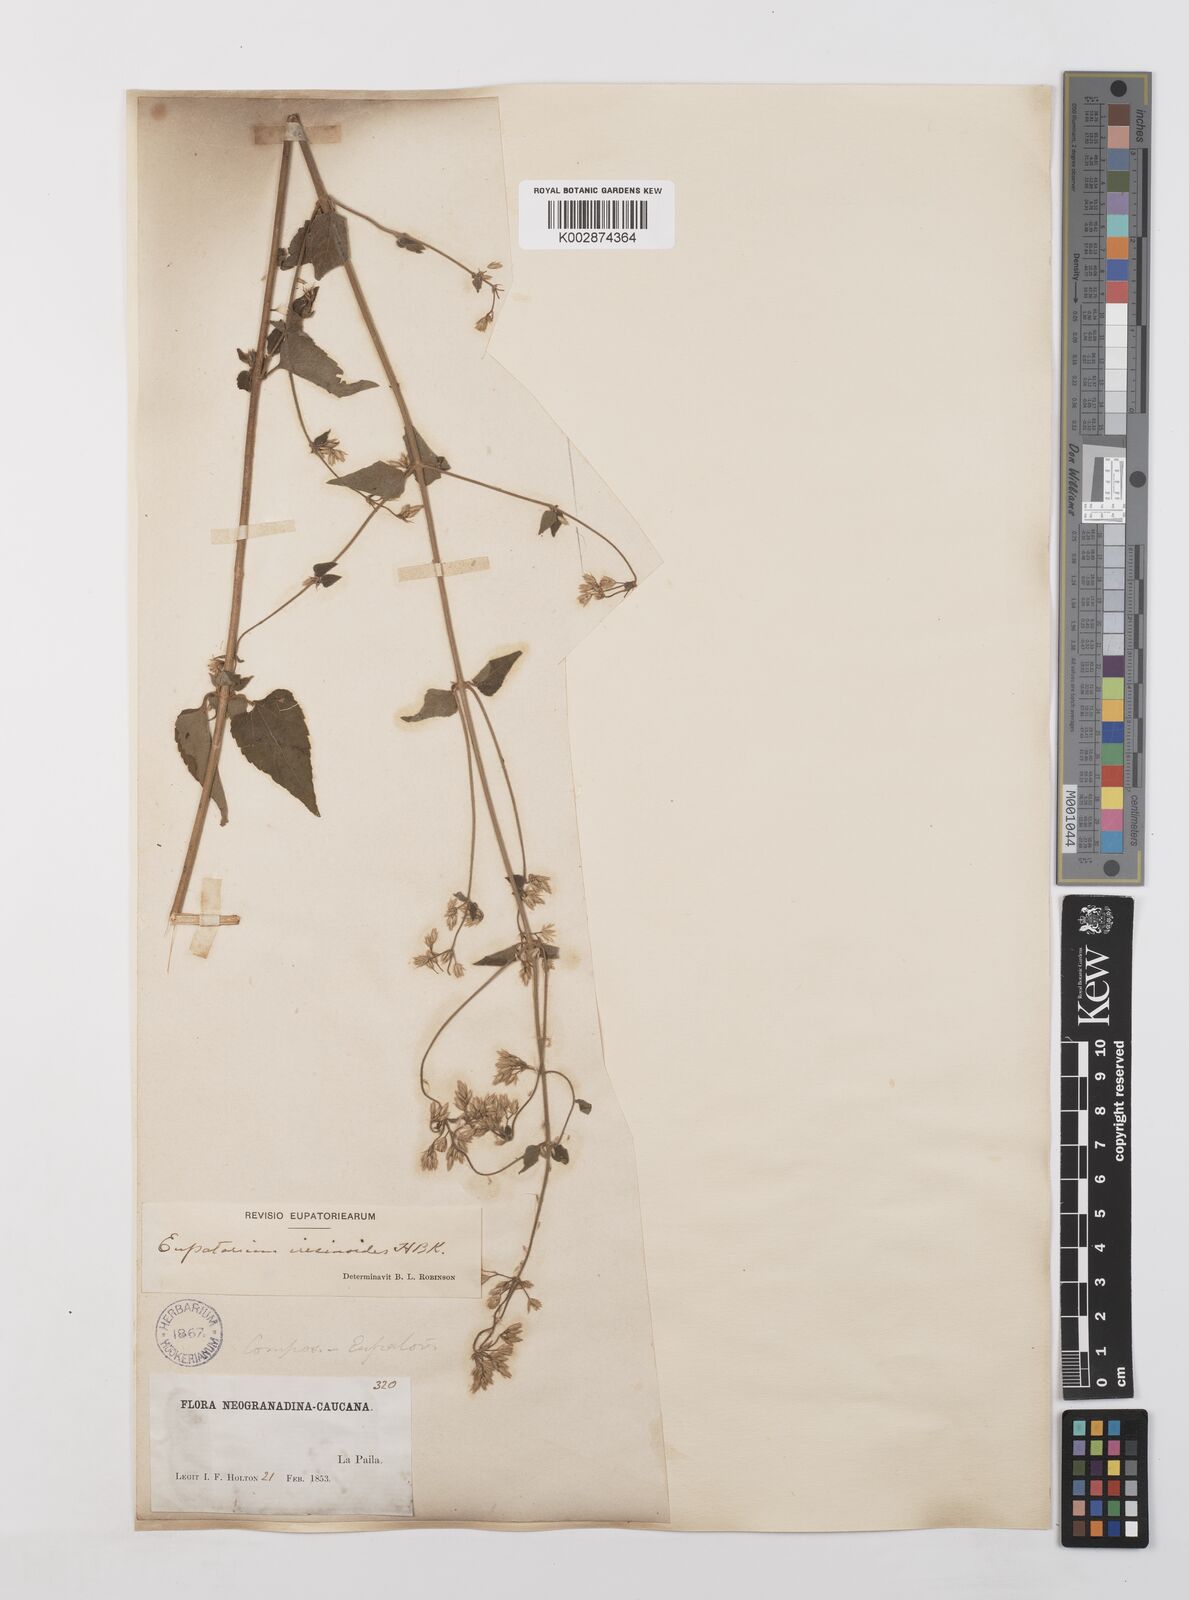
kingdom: Plantae
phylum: Tracheophyta
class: Magnoliopsida
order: Asterales
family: Asteraceae
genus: Condylidium
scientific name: Condylidium iresinoides
